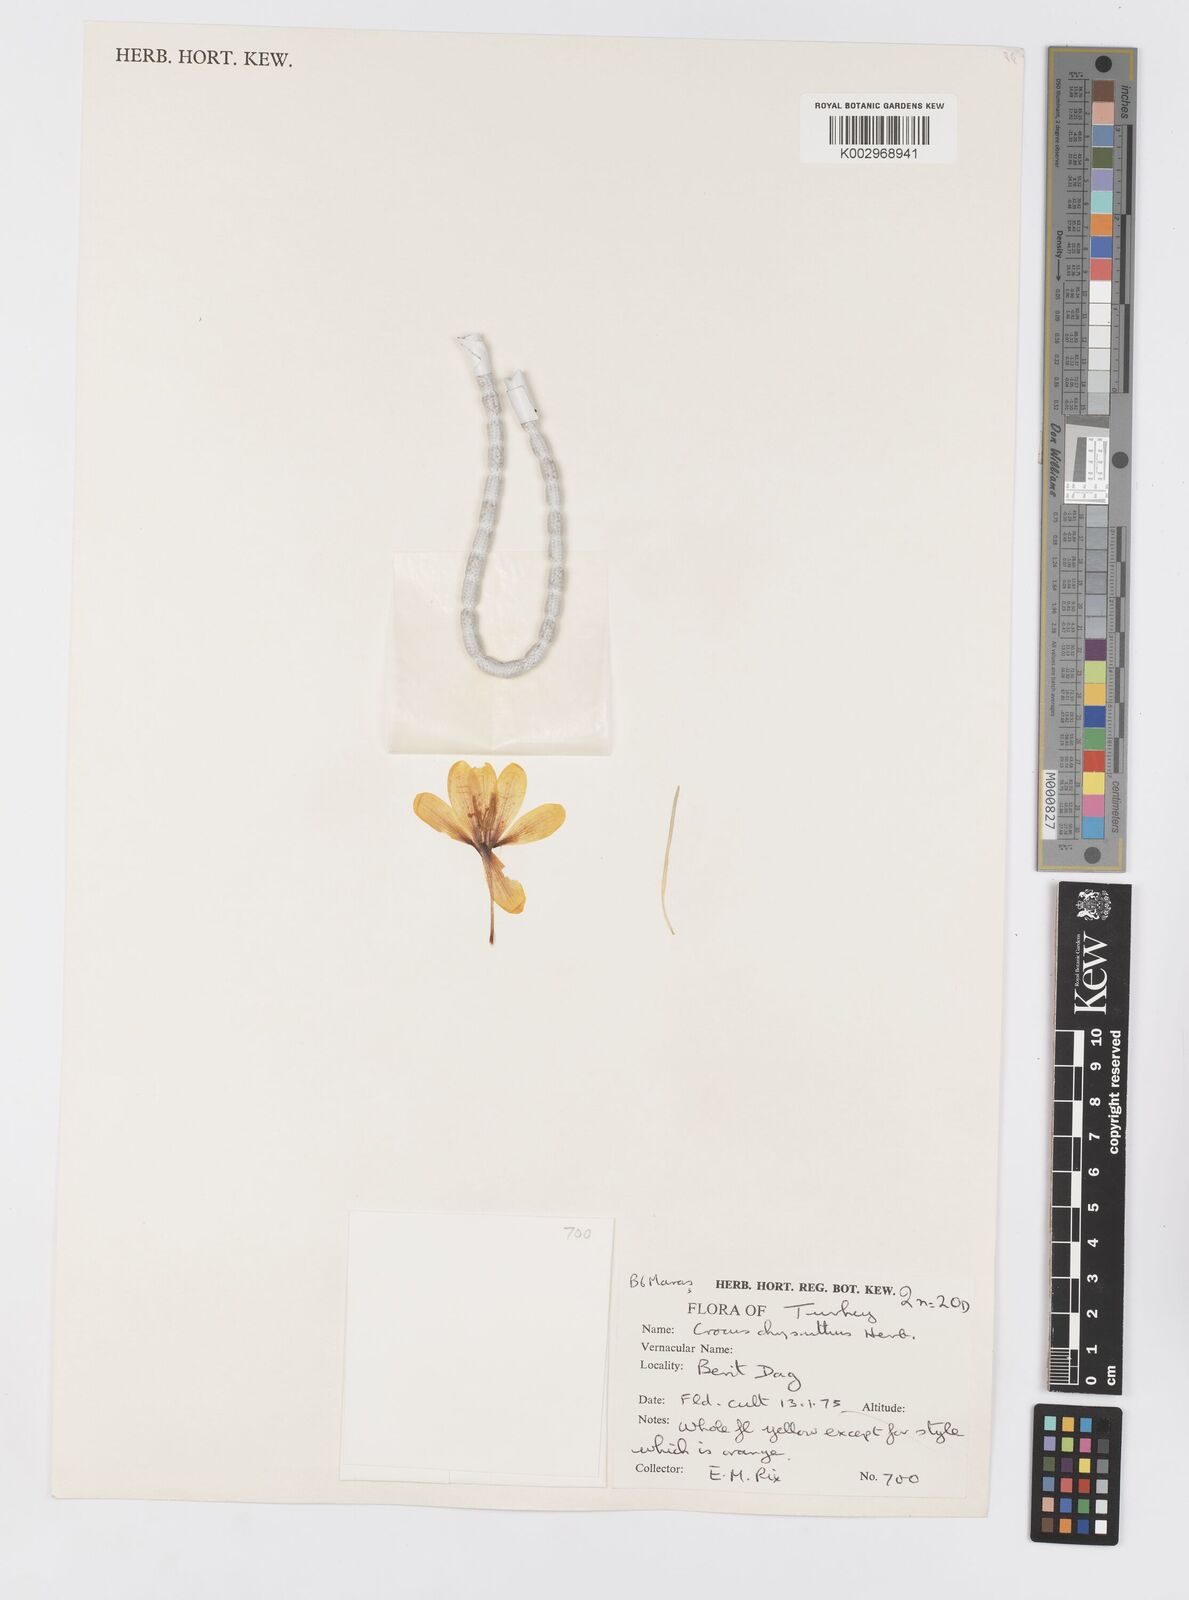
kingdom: Plantae
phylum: Tracheophyta
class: Liliopsida
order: Asparagales
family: Iridaceae
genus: Crocus
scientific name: Crocus chrysanthus
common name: Golden crocus
